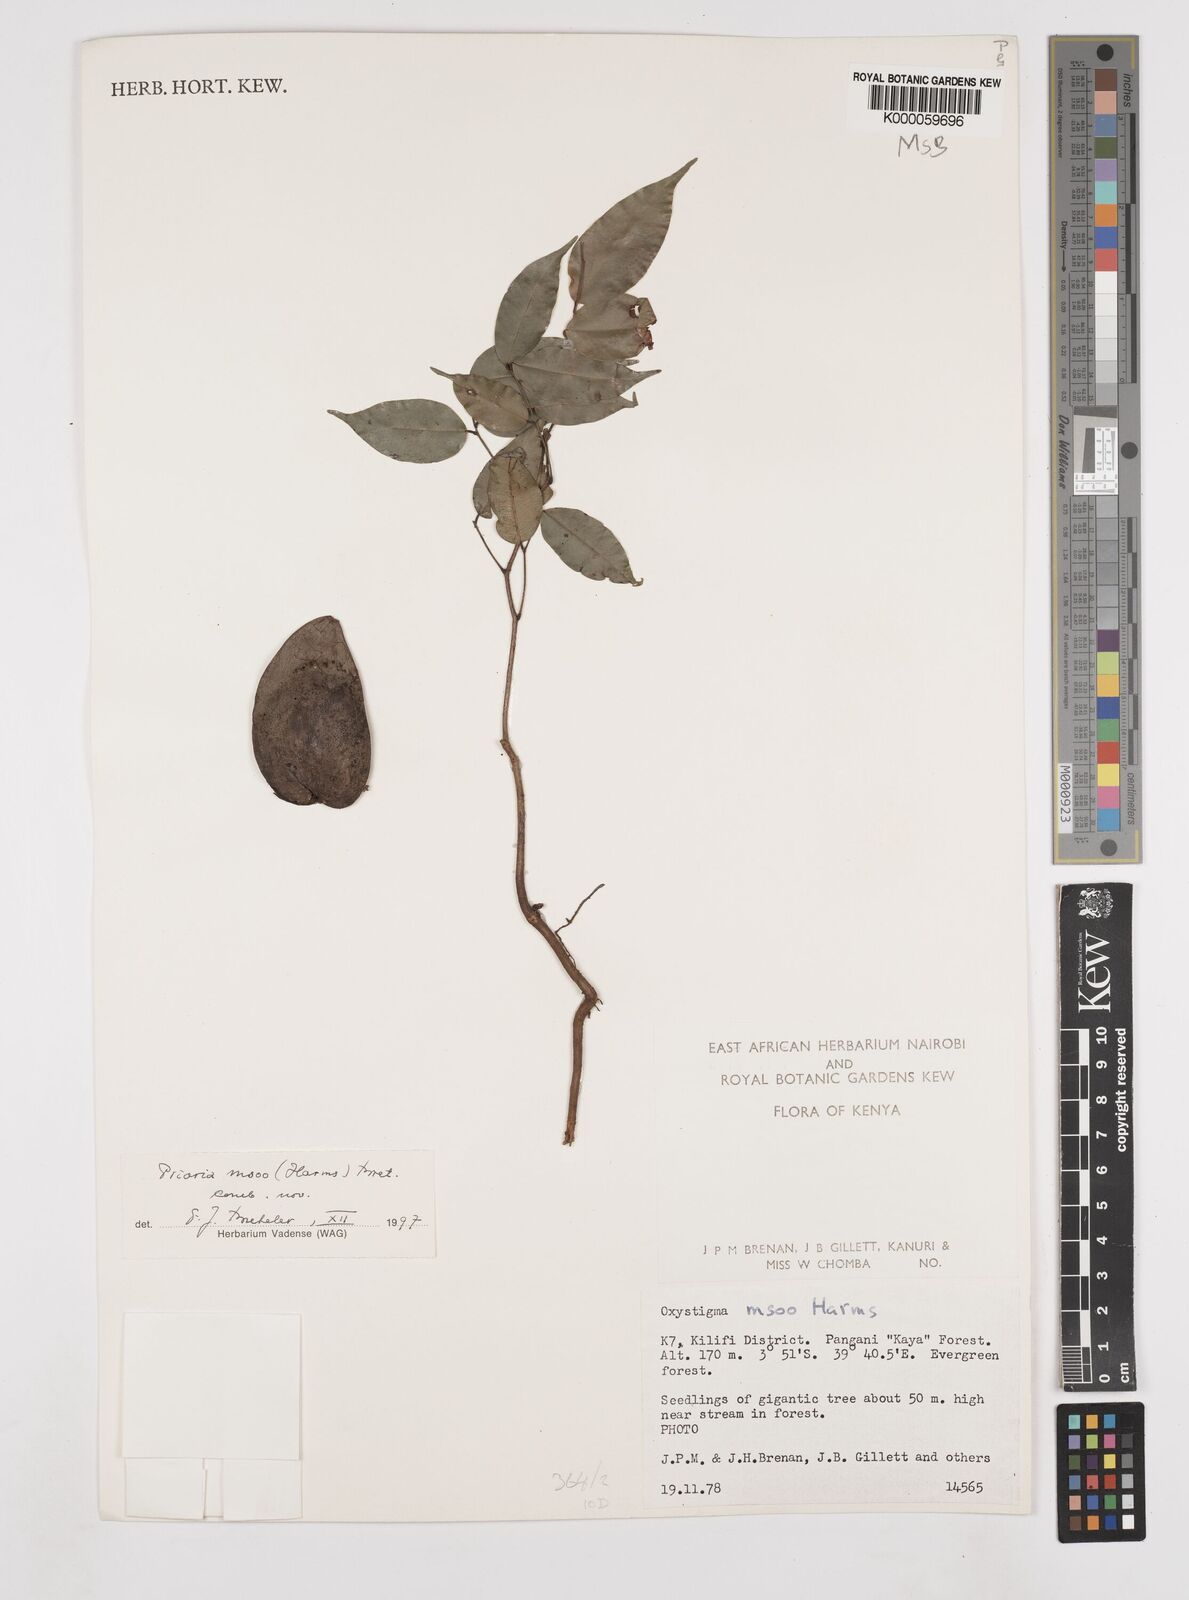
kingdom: Plantae
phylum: Tracheophyta
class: Magnoliopsida
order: Fabales
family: Fabaceae
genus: Prioria
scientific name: Prioria msoo
